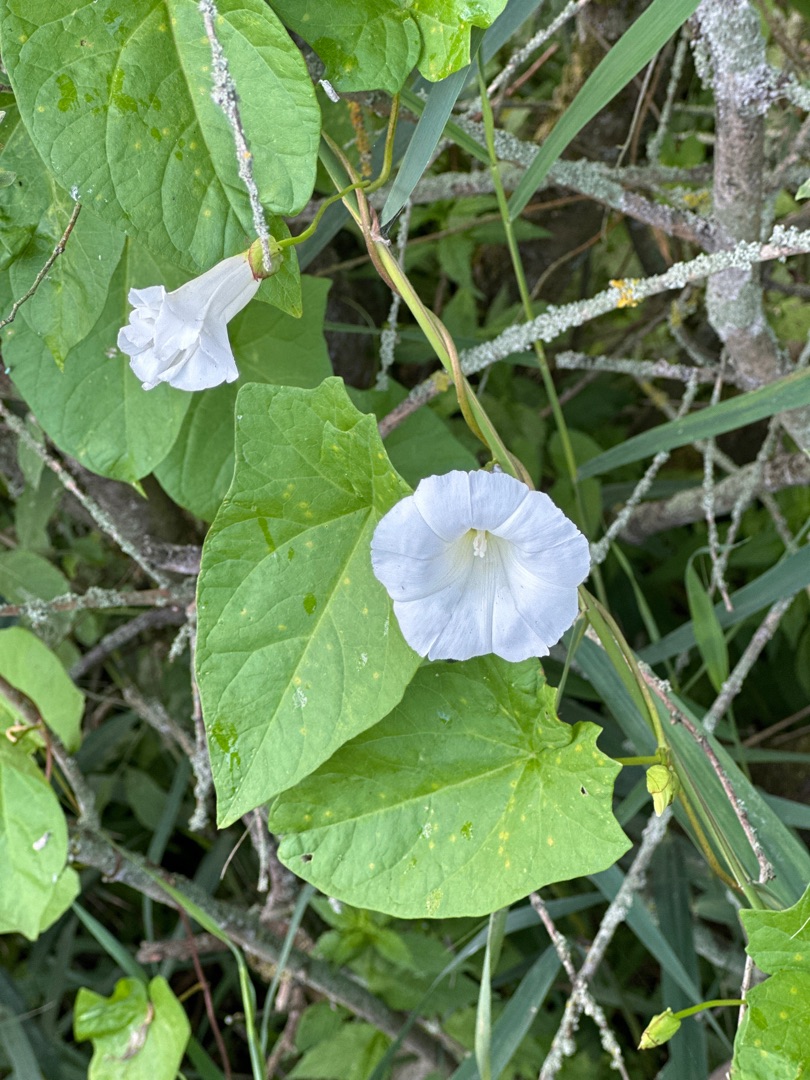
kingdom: Plantae
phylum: Tracheophyta
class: Magnoliopsida
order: Solanales
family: Convolvulaceae
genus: Calystegia
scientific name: Calystegia sepium
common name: Gærde-snerle
